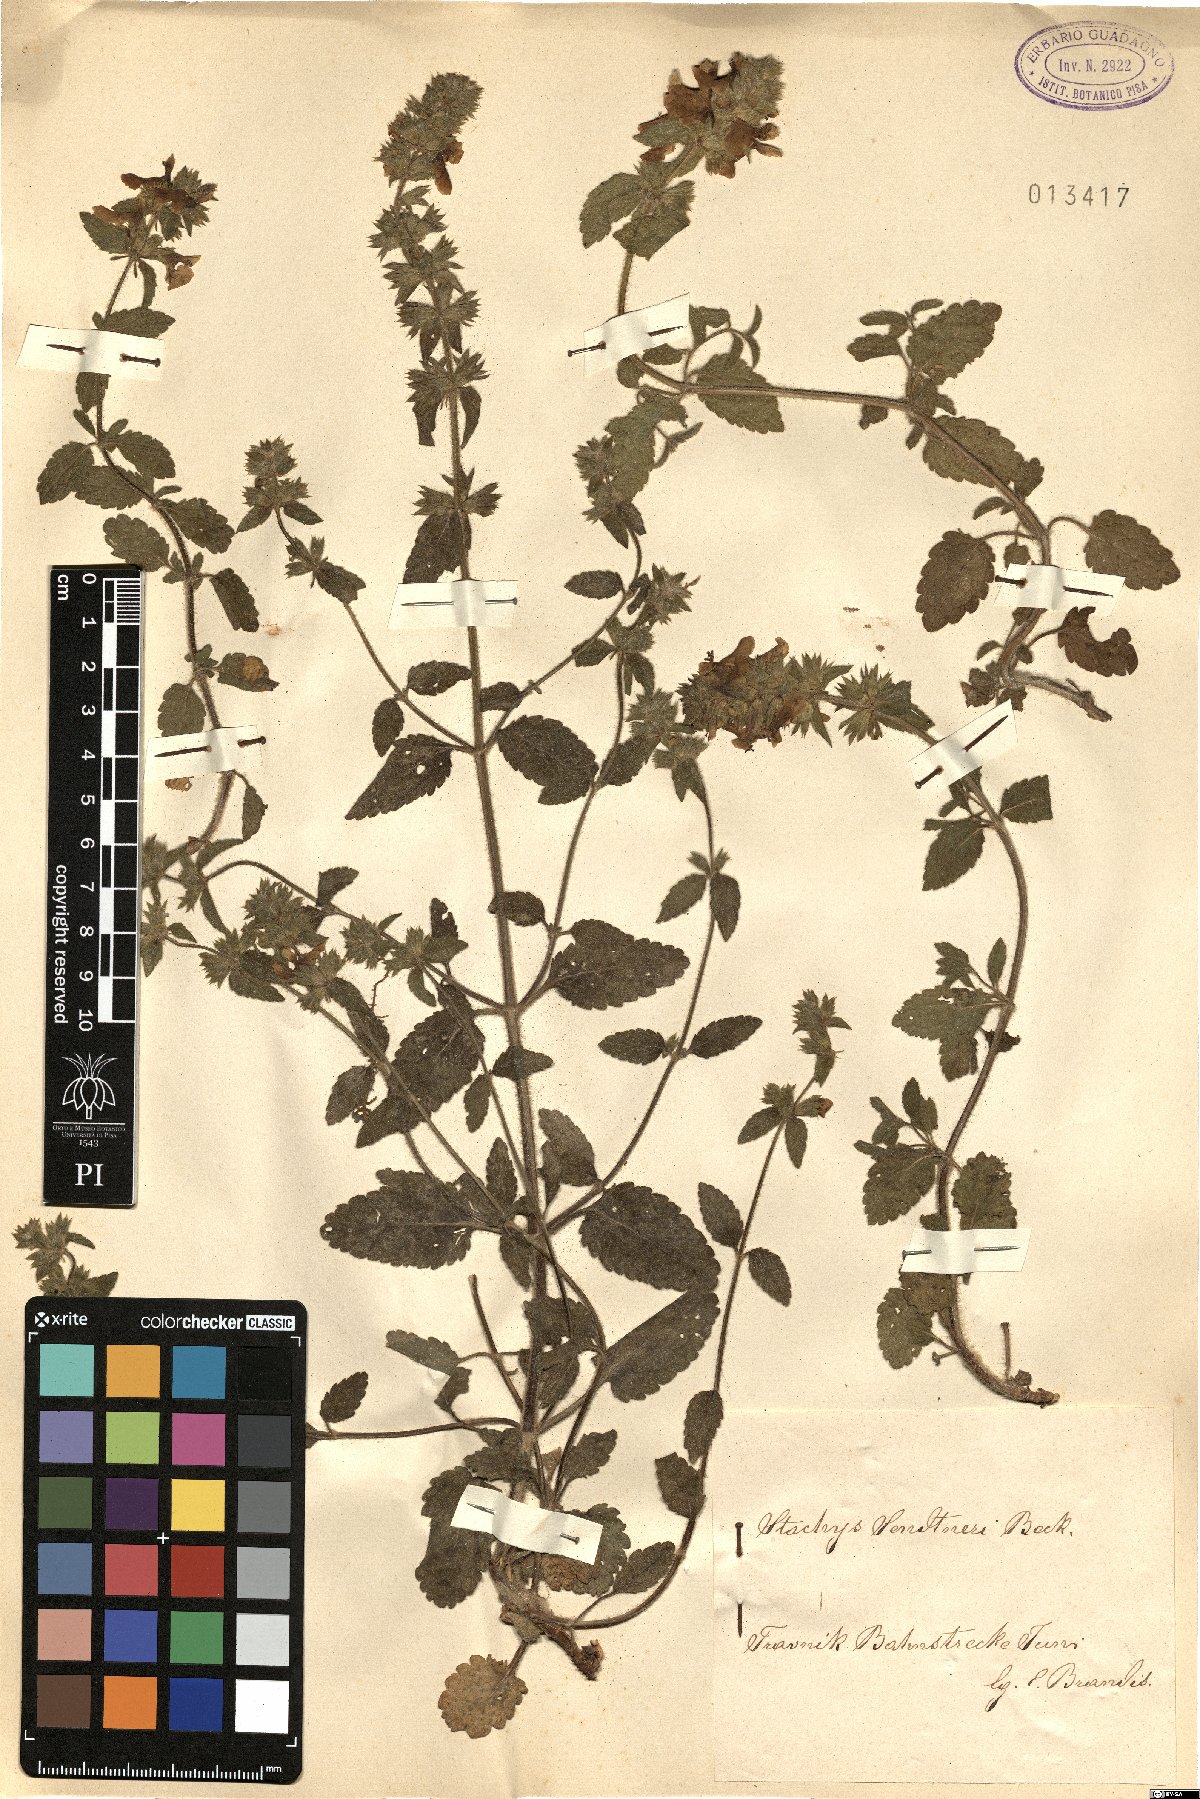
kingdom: Plantae
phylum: Tracheophyta
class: Magnoliopsida
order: Lamiales
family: Lamiaceae
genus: Stachys
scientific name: Stachys anisochila
